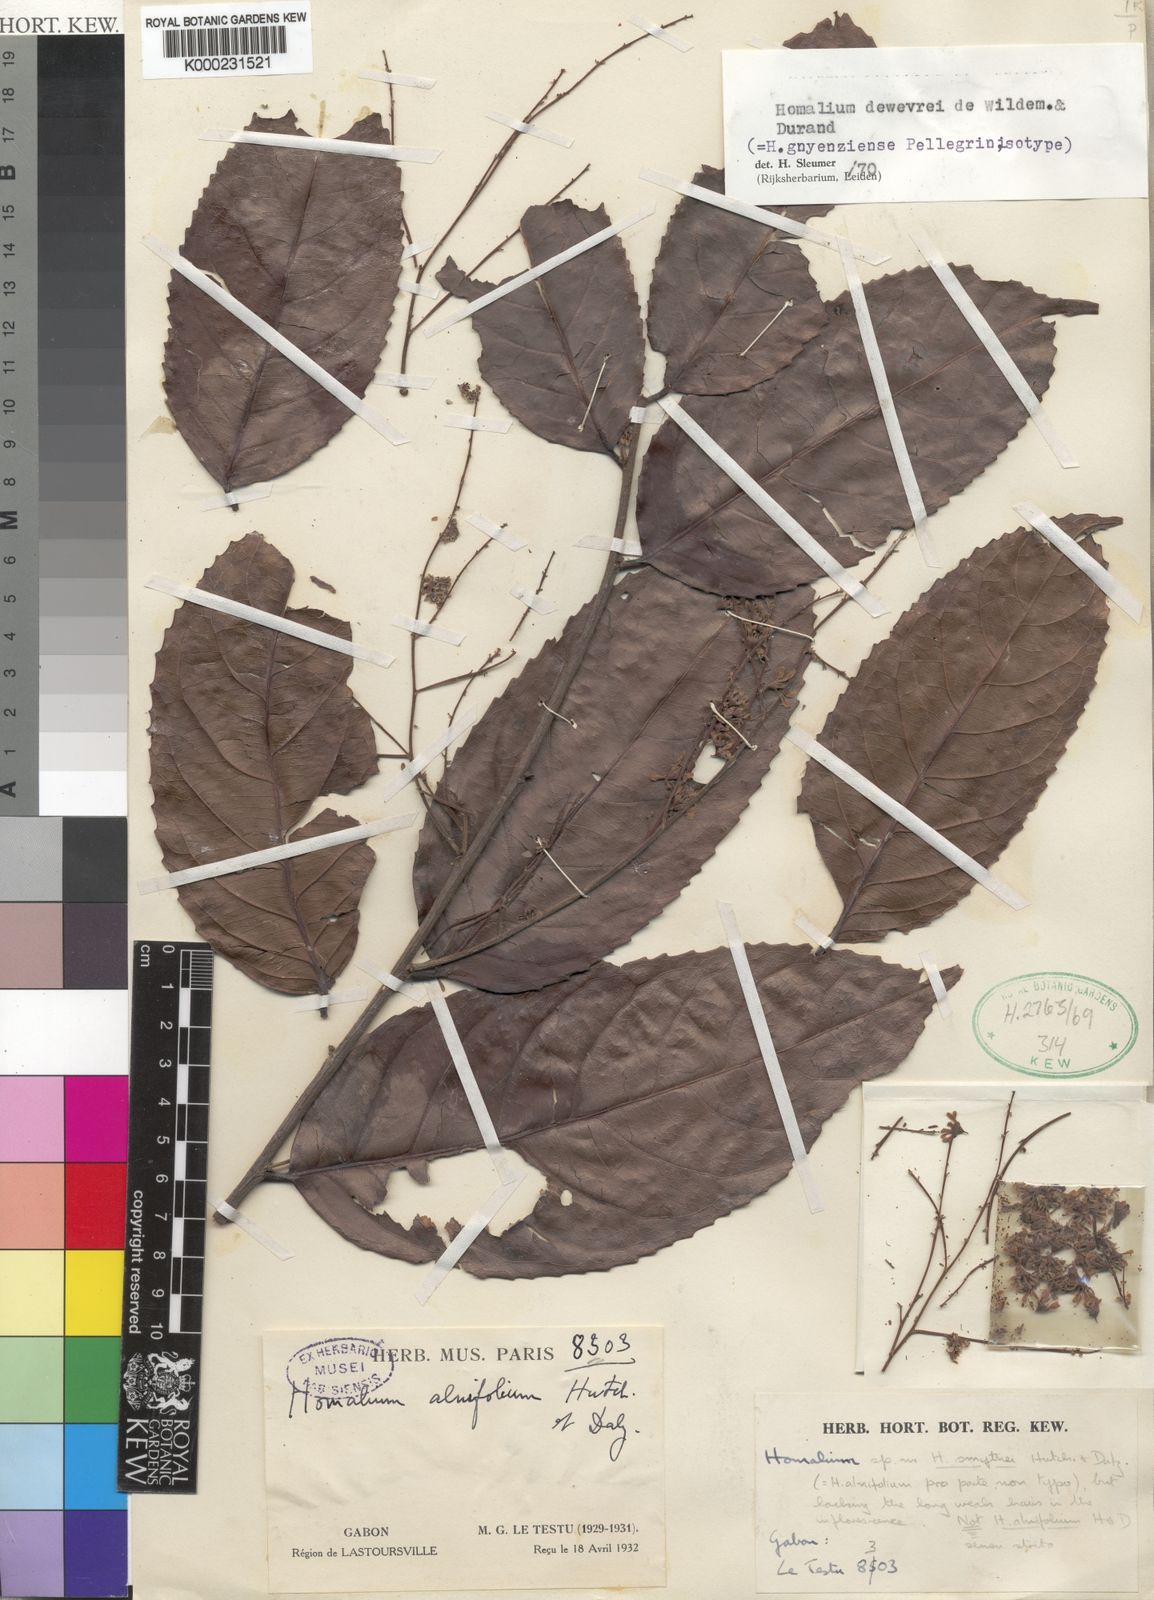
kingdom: Plantae
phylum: Tracheophyta
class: Magnoliopsida
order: Malpighiales
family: Salicaceae
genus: Homalium
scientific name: Homalium dewevrei
